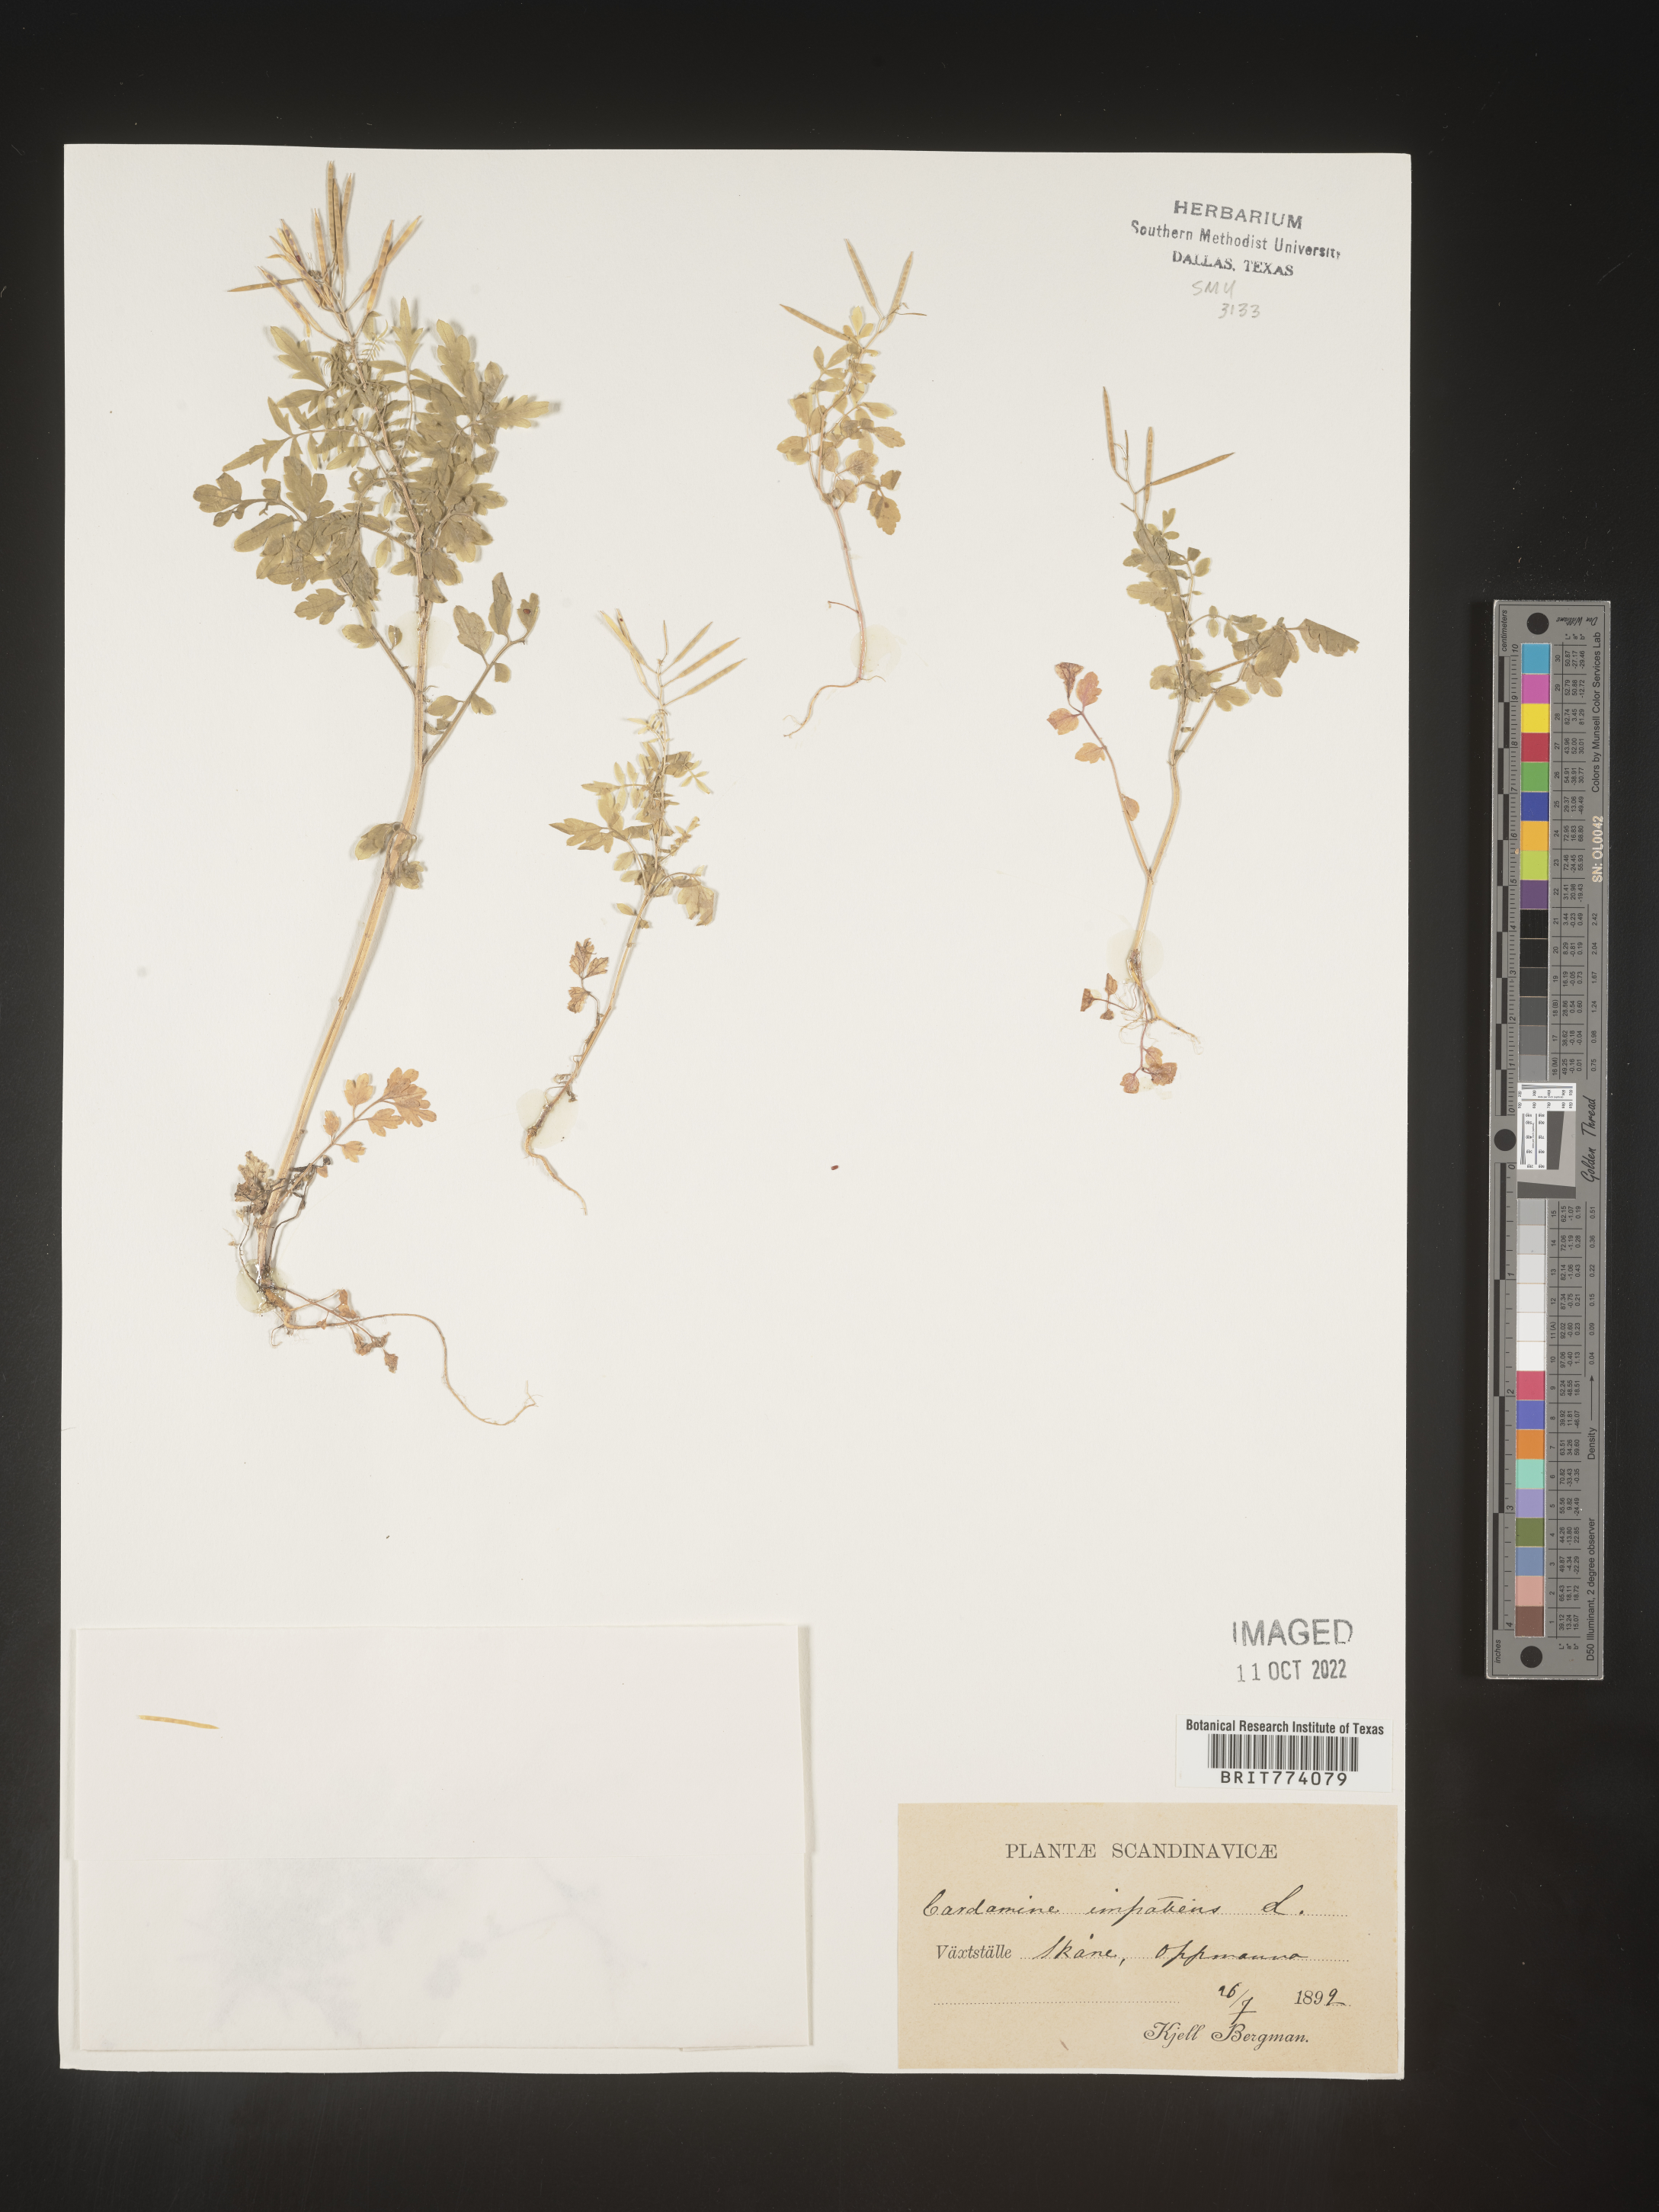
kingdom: Plantae
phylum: Tracheophyta
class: Magnoliopsida
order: Brassicales
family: Brassicaceae
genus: Cardamine
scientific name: Cardamine
